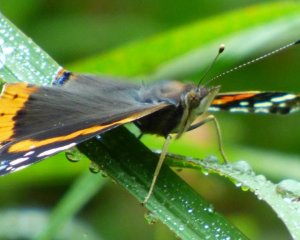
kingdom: Animalia
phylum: Arthropoda
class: Insecta
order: Lepidoptera
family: Nymphalidae
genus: Vanessa
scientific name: Vanessa atalanta
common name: Red Admiral
